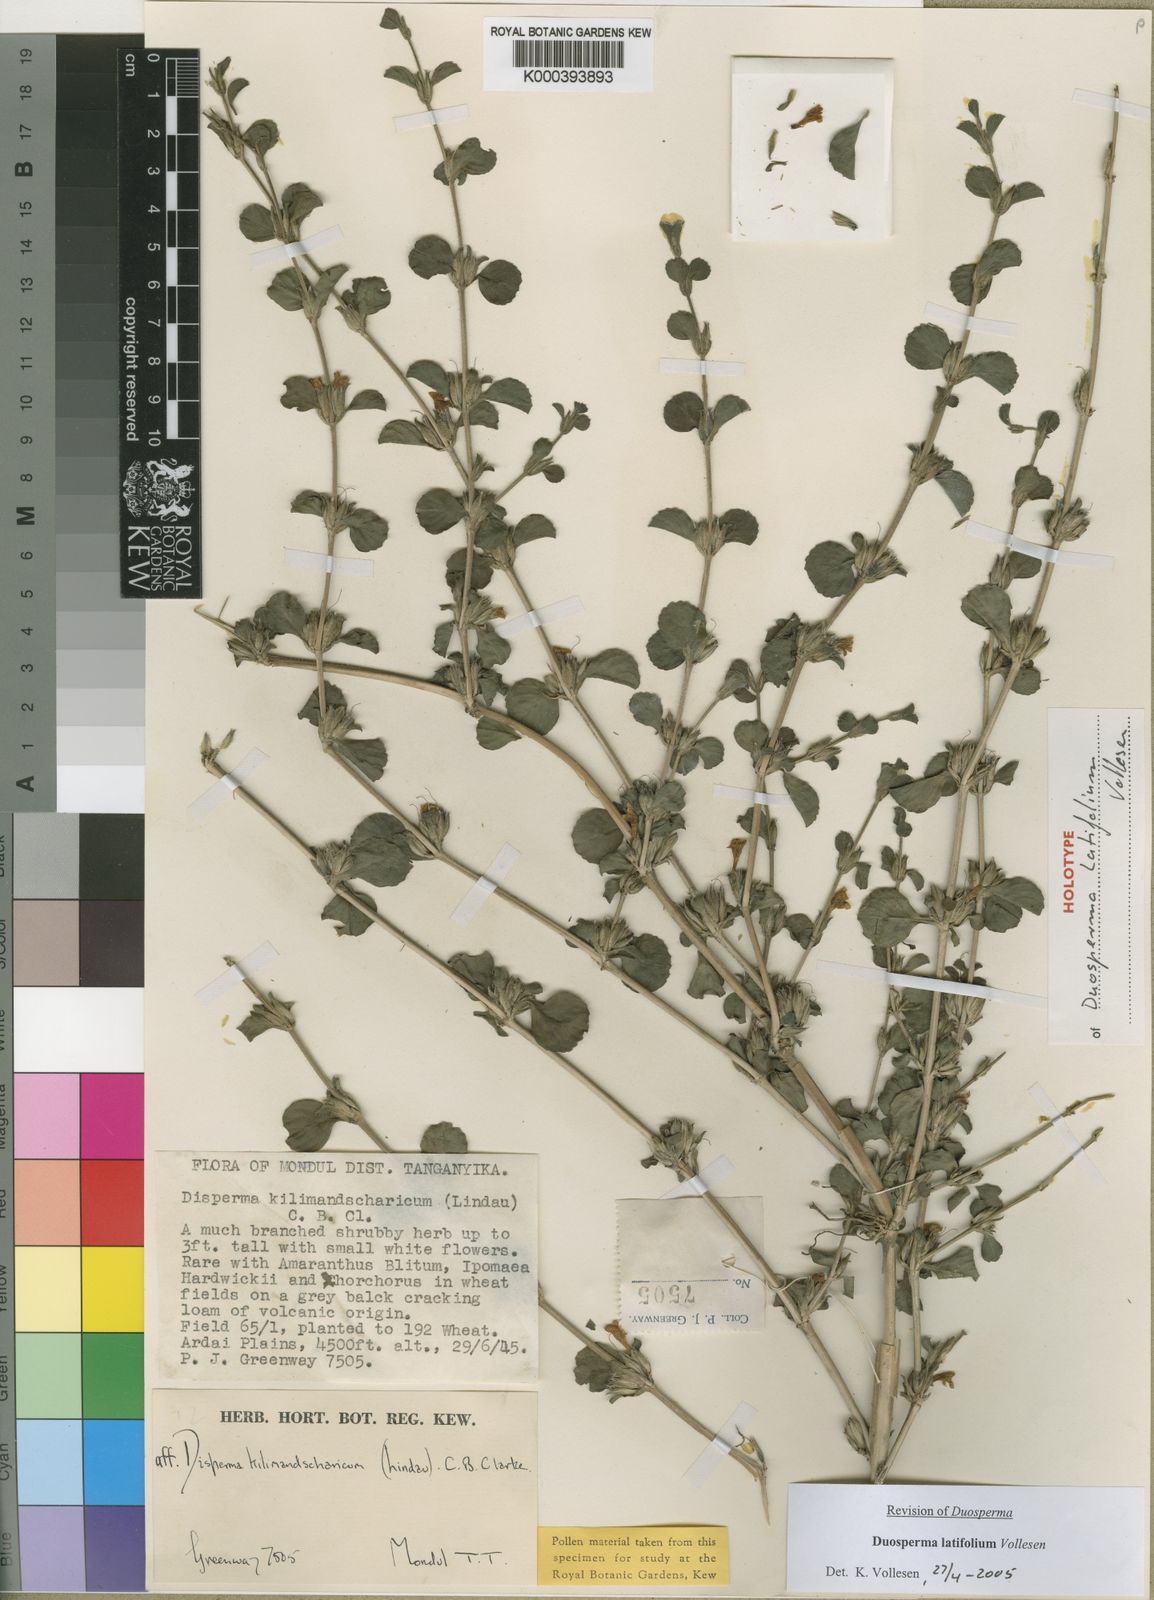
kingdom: Plantae
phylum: Tracheophyta
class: Magnoliopsida
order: Lamiales
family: Acanthaceae
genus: Duosperma
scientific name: Duosperma latifolium
